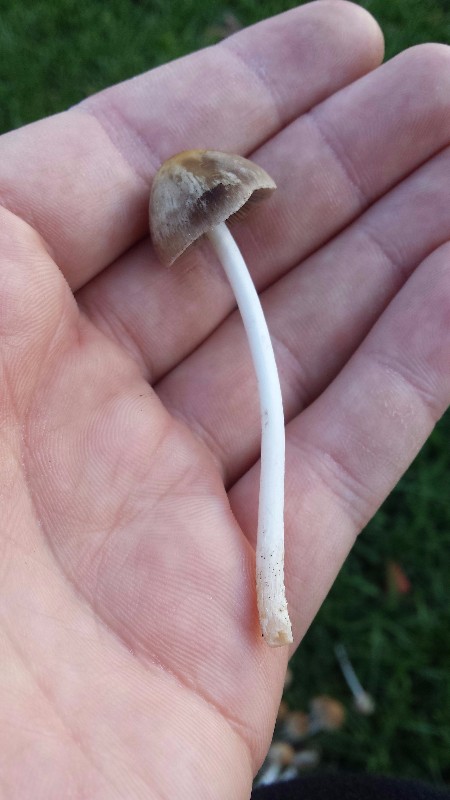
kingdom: Fungi
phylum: Basidiomycota
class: Agaricomycetes
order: Agaricales
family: Psathyrellaceae
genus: Britzelmayria
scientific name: Britzelmayria multipedata
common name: knippe-mørkhat
